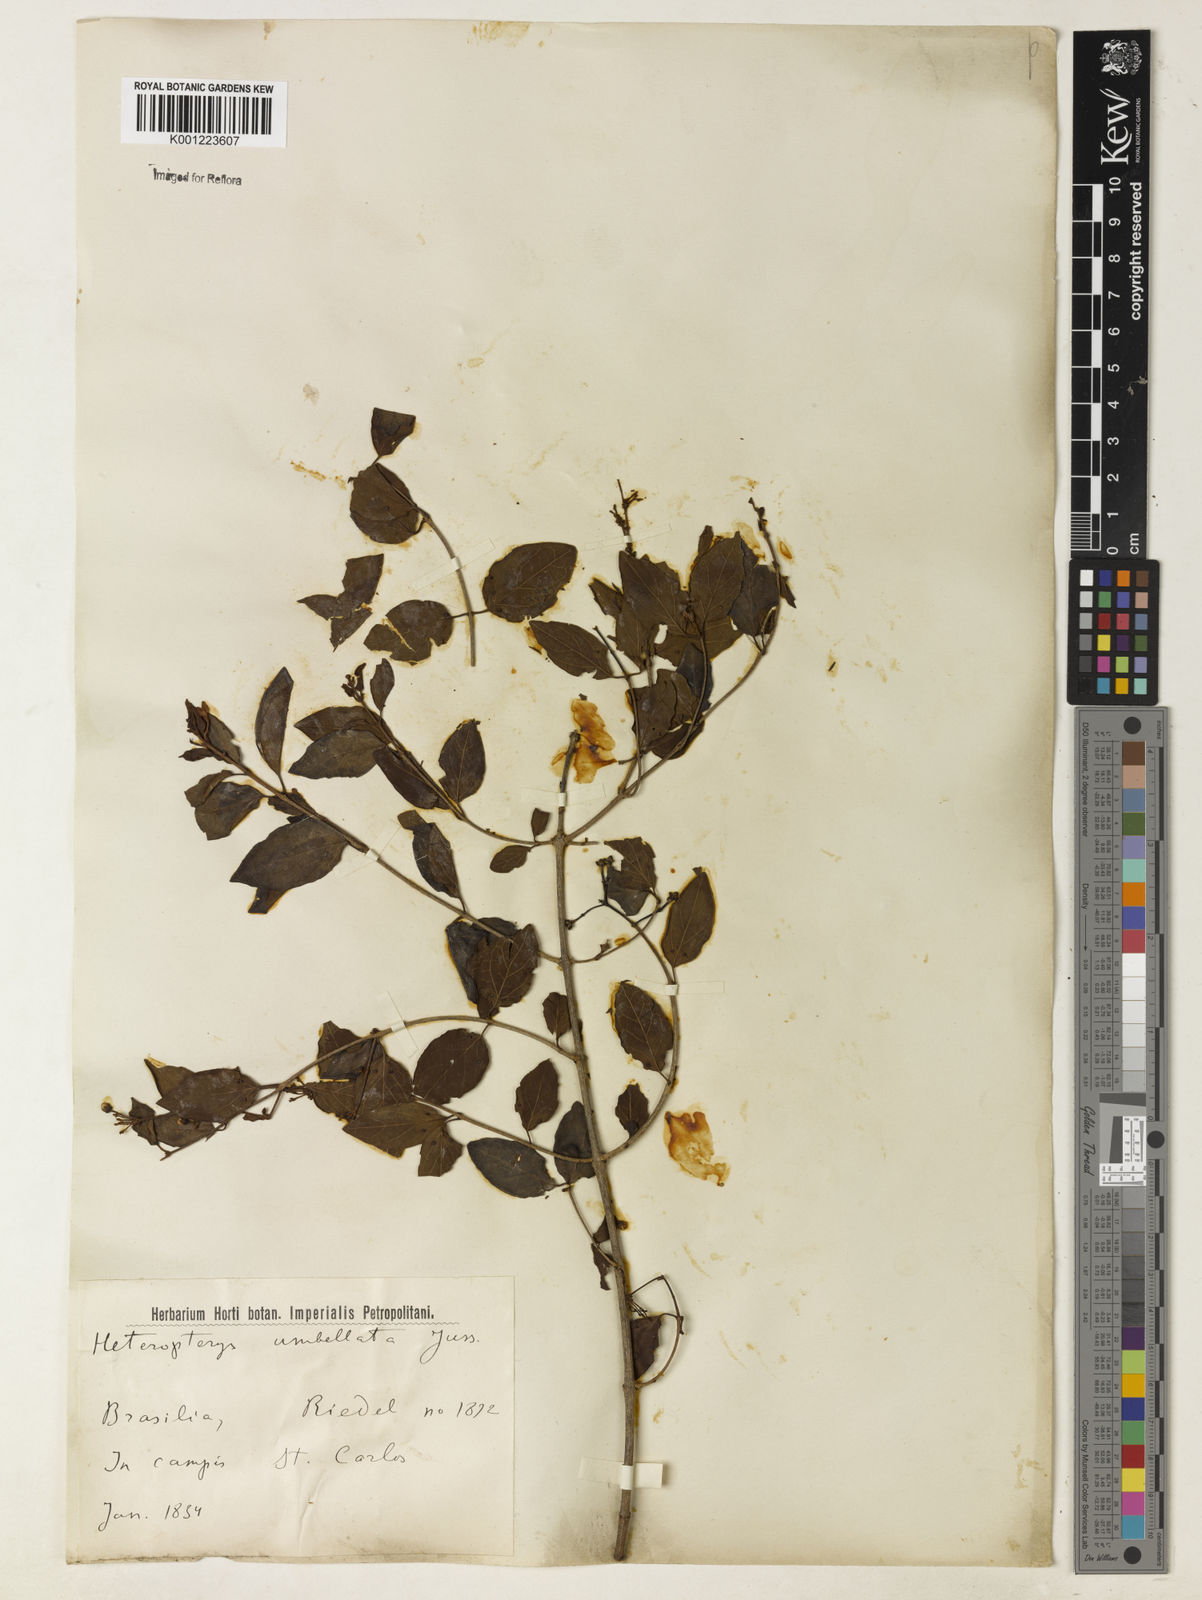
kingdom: Plantae
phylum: Tracheophyta
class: Magnoliopsida
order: Malpighiales
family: Malpighiaceae
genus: Heteropterys
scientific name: Heteropterys umbellata
